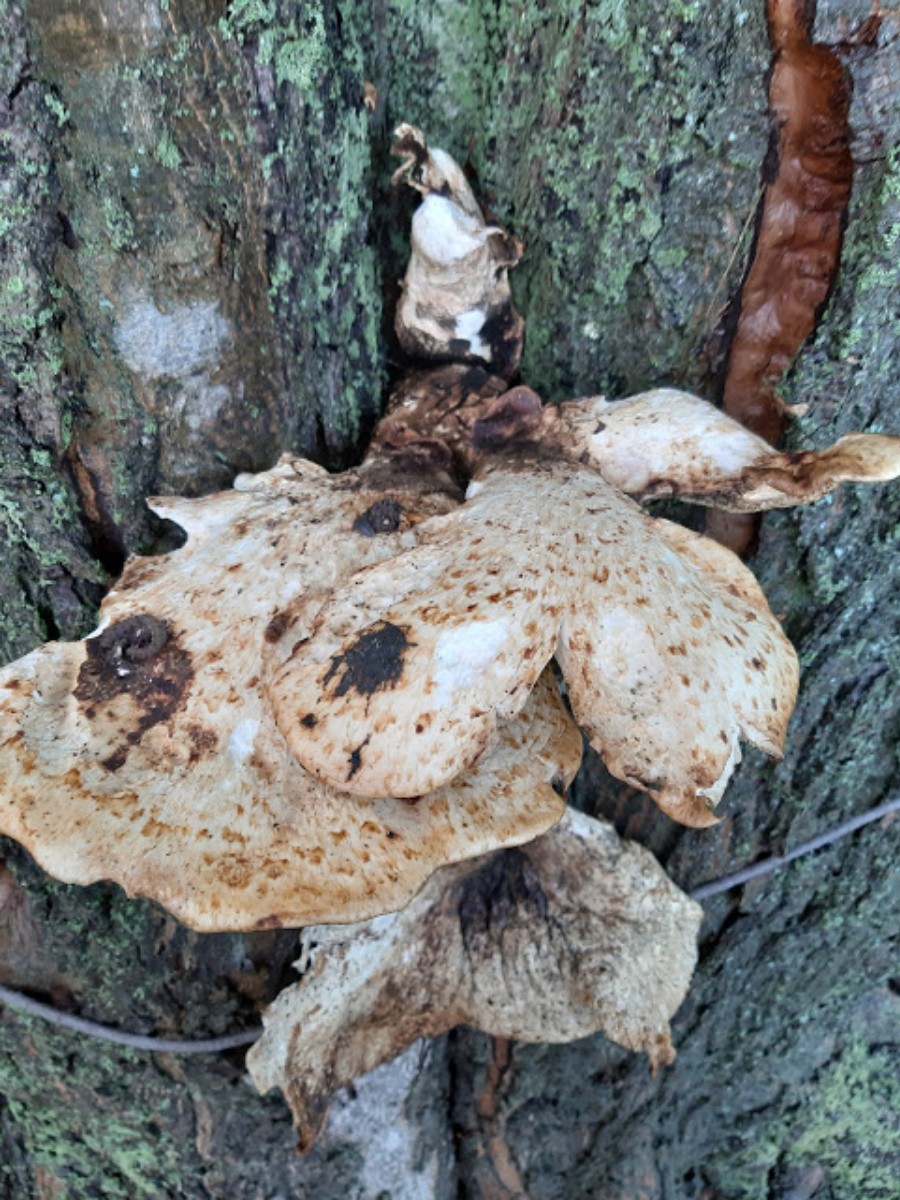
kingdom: Fungi
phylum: Basidiomycota
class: Agaricomycetes
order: Polyporales
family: Polyporaceae
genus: Cerioporus
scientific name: Cerioporus squamosus
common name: skællet stilkporesvamp
